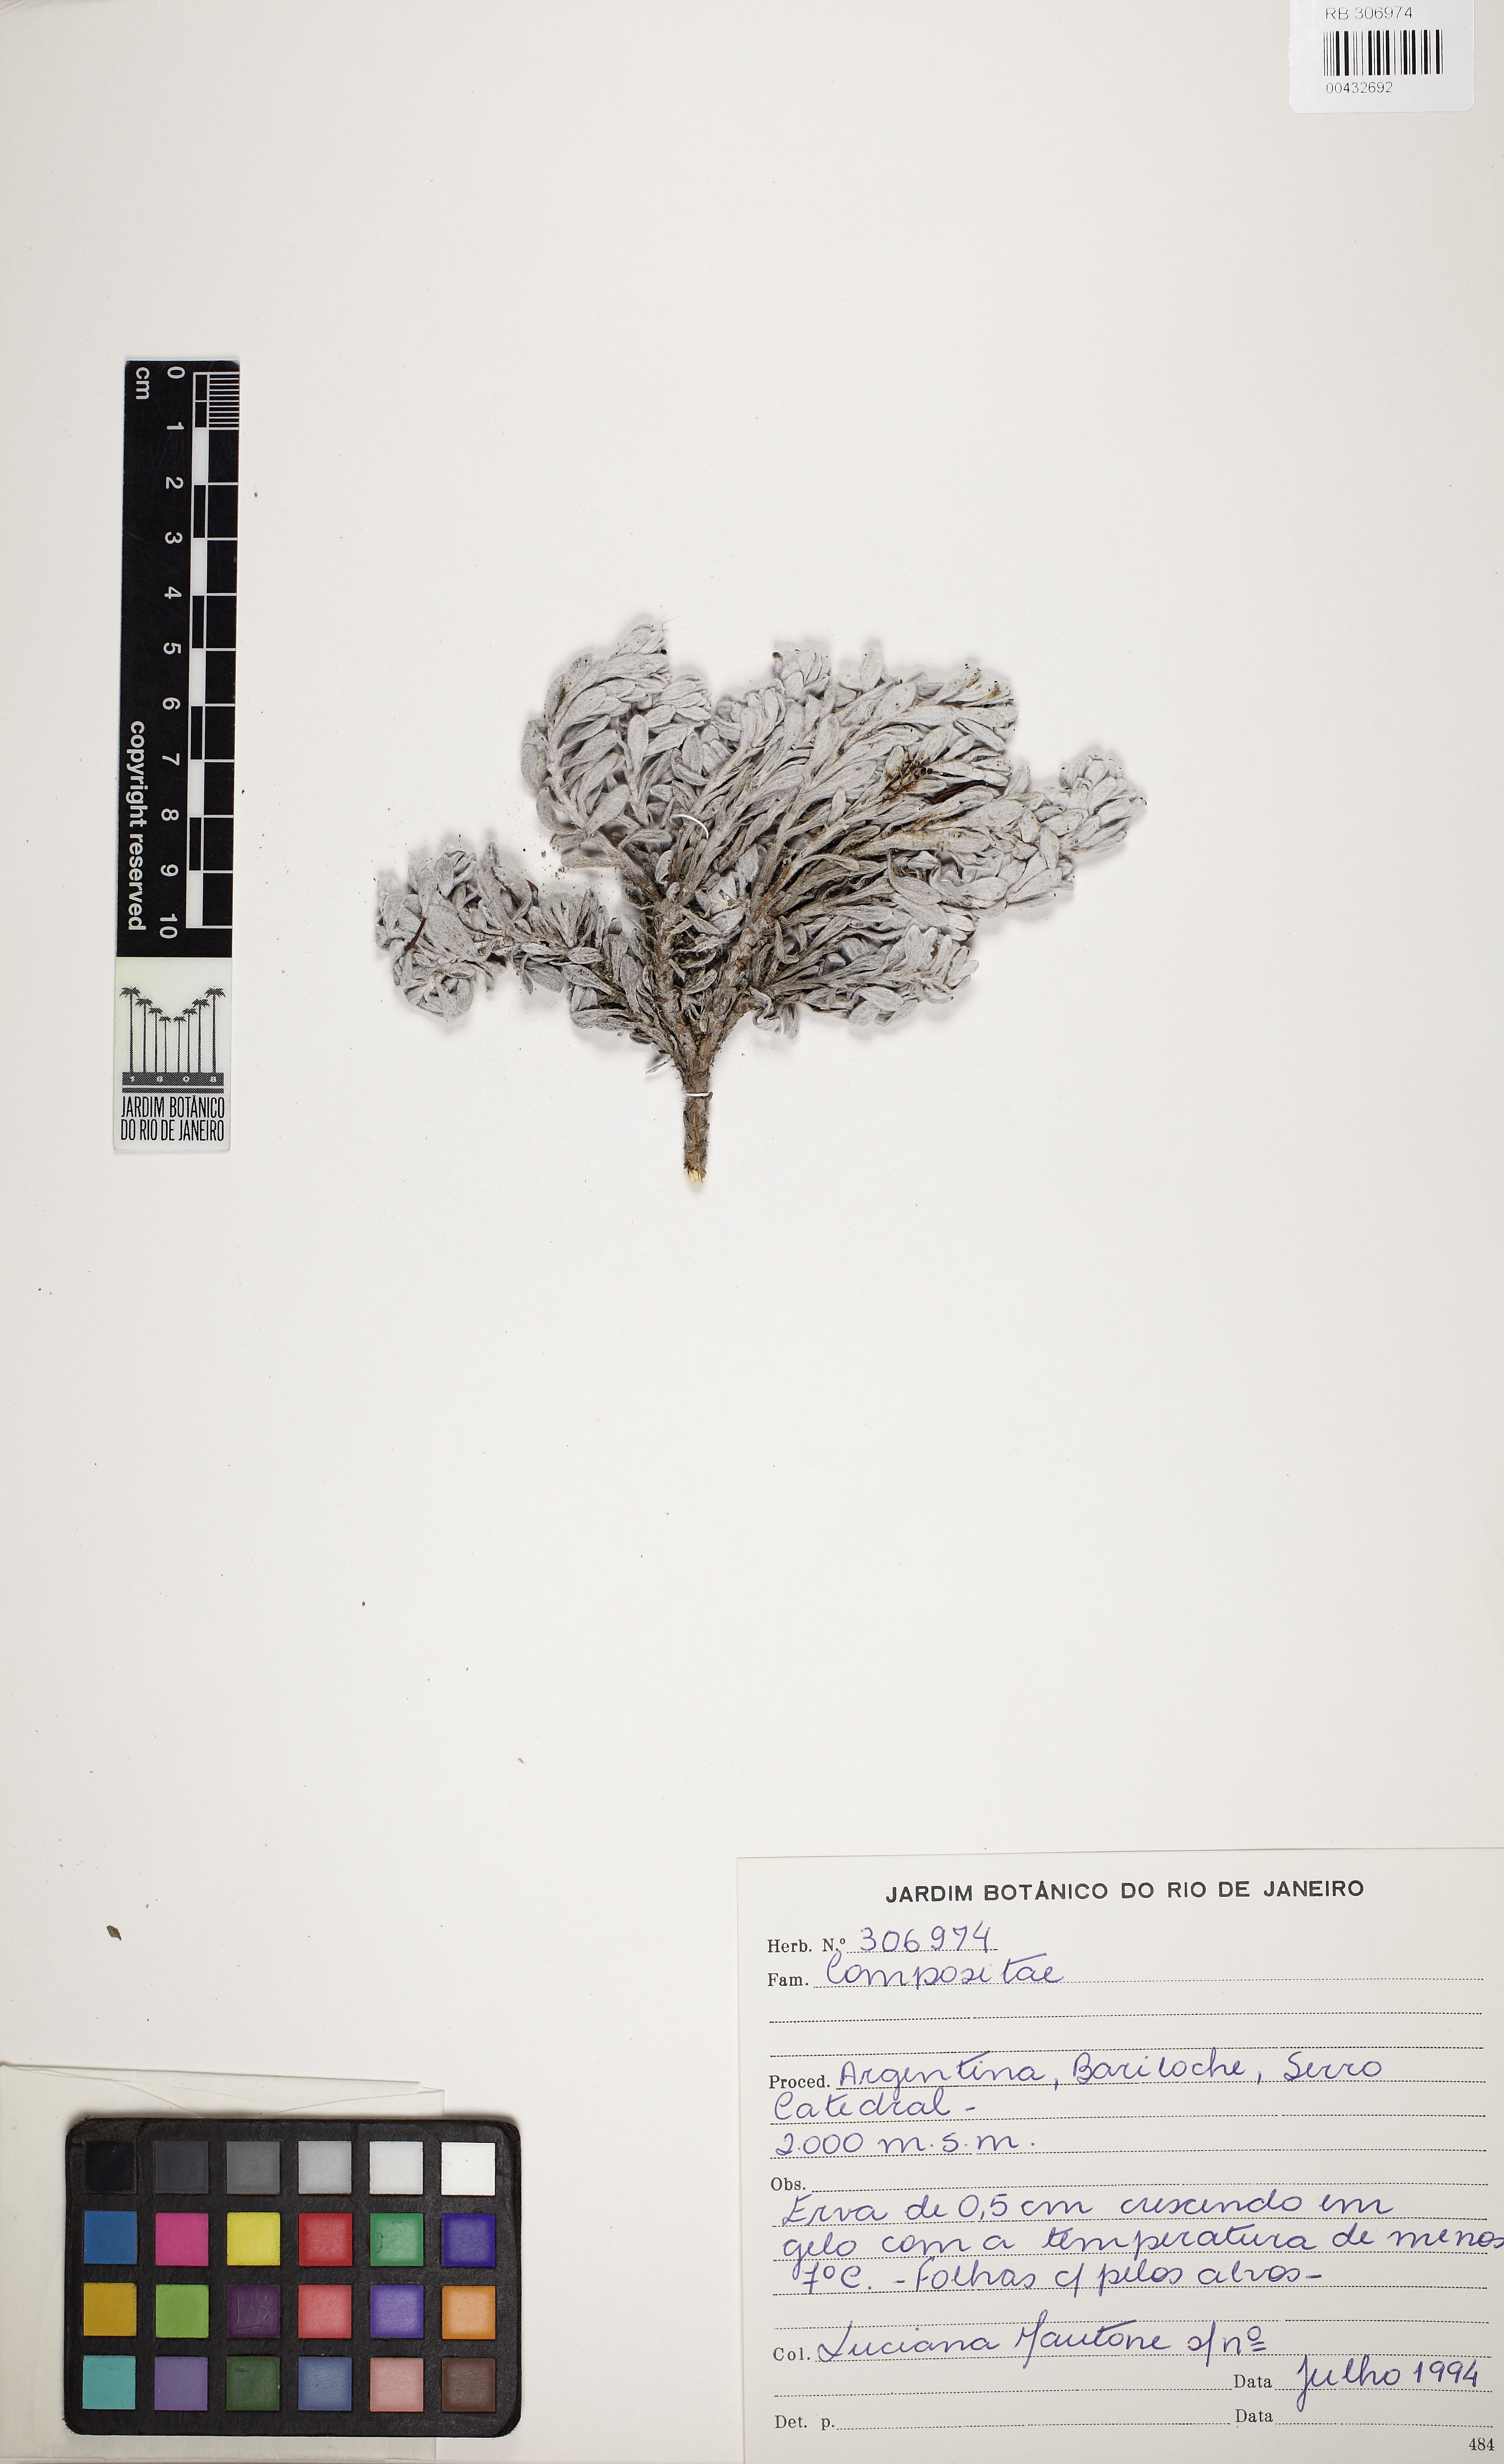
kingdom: Plantae
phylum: Tracheophyta
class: Magnoliopsida
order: Asterales
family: Asteraceae
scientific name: Asteraceae
